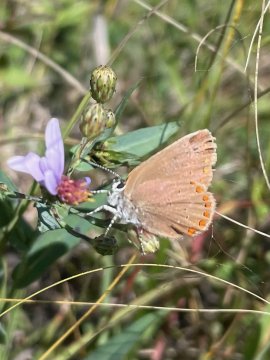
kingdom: Animalia
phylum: Arthropoda
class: Insecta
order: Lepidoptera
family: Lycaenidae
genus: Harkenclenus
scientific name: Harkenclenus titus
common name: Coral Hairstreak
